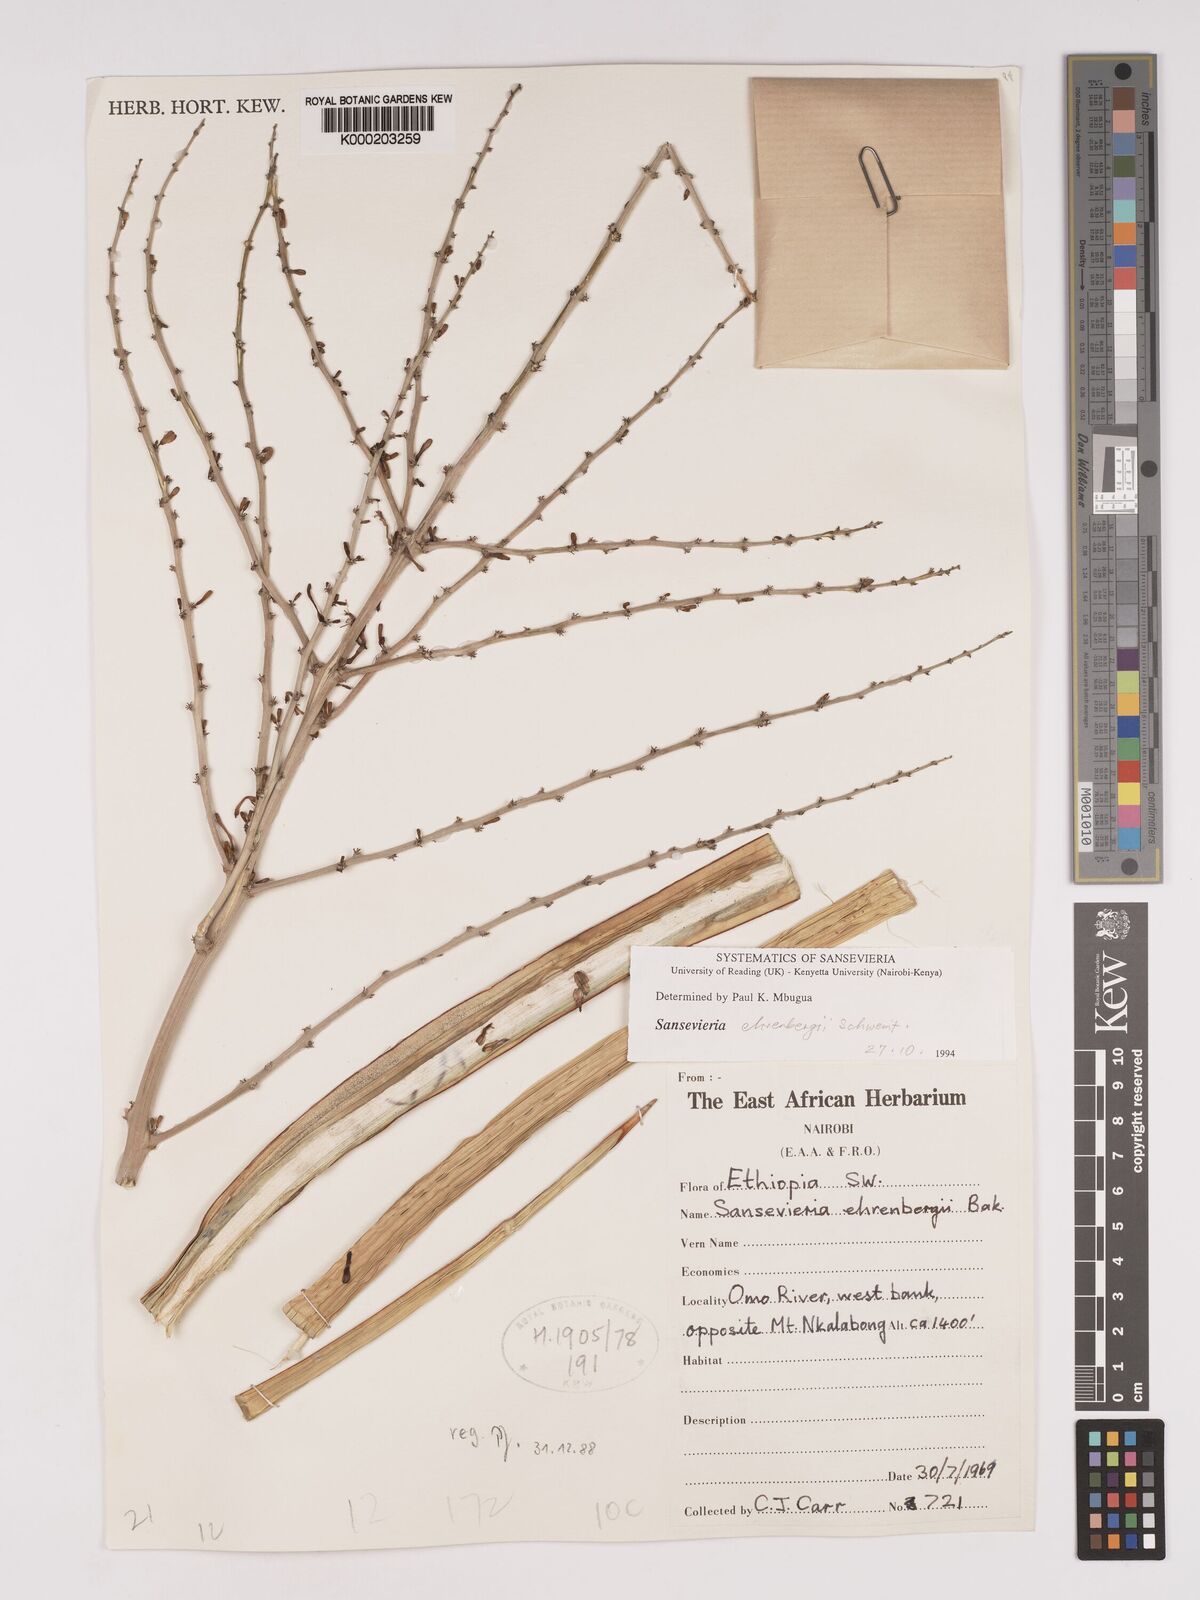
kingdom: Plantae
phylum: Tracheophyta
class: Liliopsida
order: Asparagales
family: Asparagaceae
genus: Dracaena
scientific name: Dracaena hanningtonii
